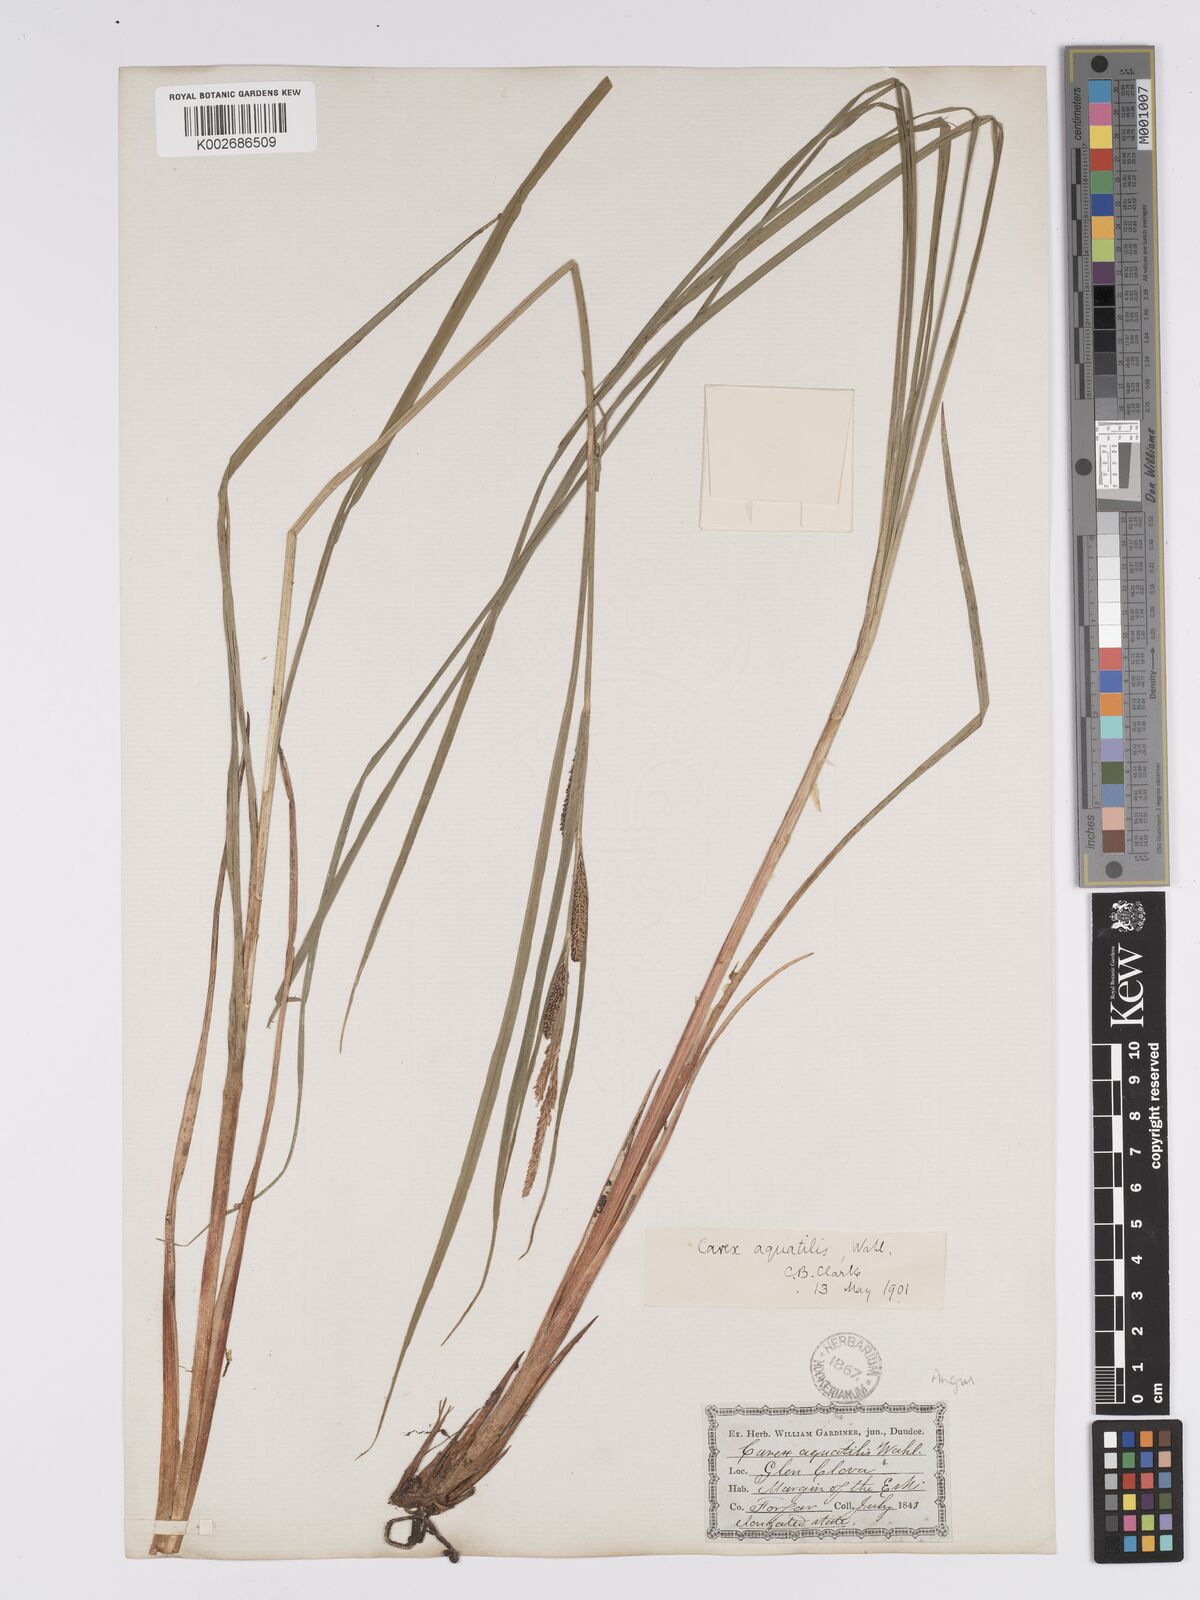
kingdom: Plantae
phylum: Tracheophyta
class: Liliopsida
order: Poales
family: Cyperaceae
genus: Carex
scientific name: Carex aquatilis
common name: Water sedge
